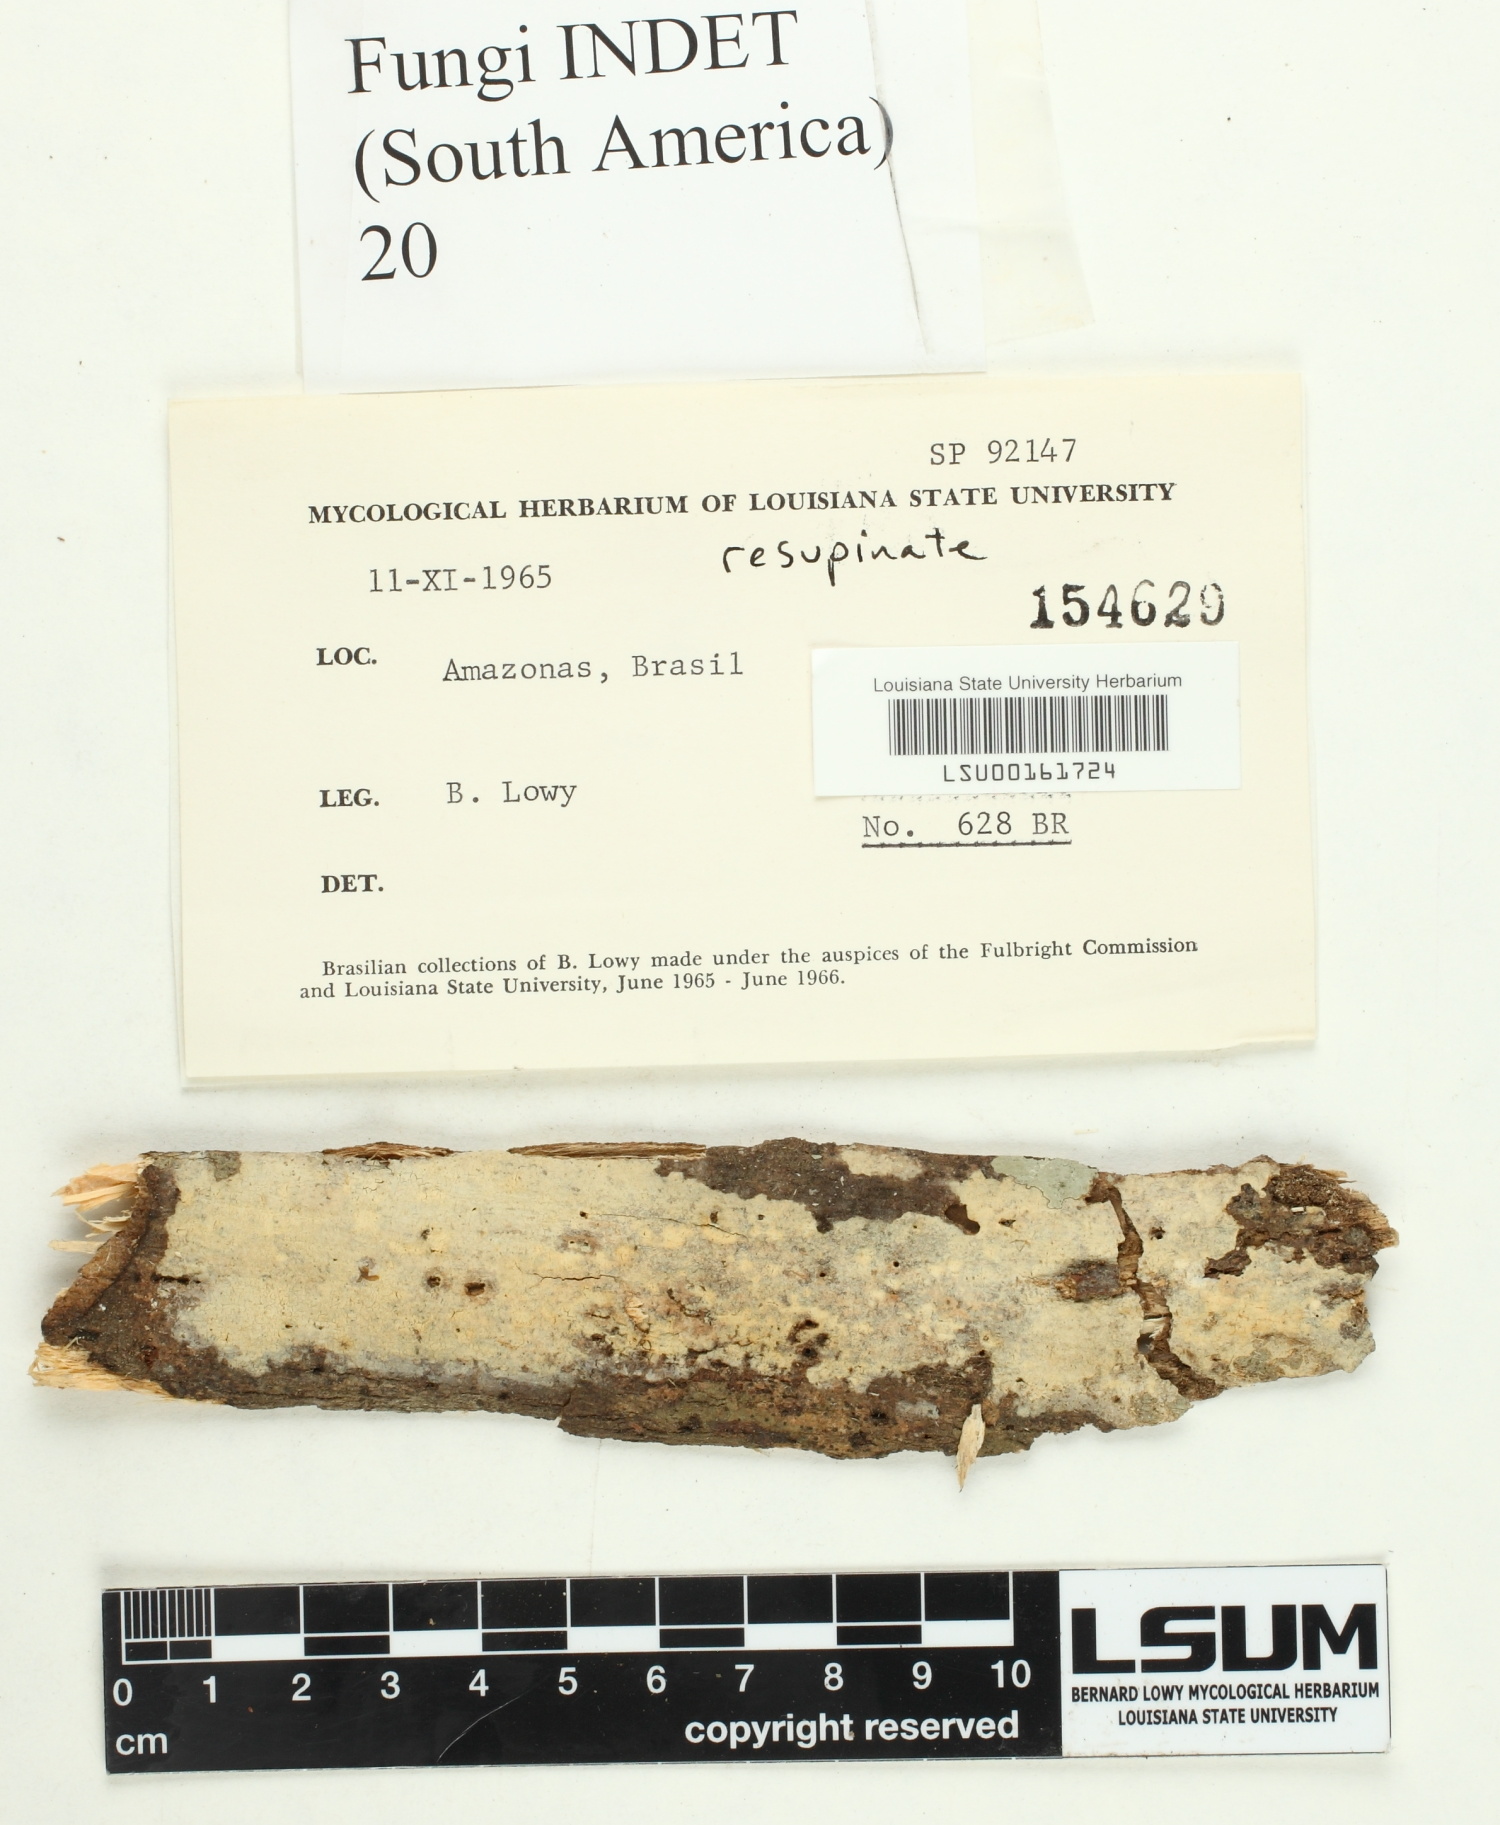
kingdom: Fungi
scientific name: Fungi
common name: Fungi
